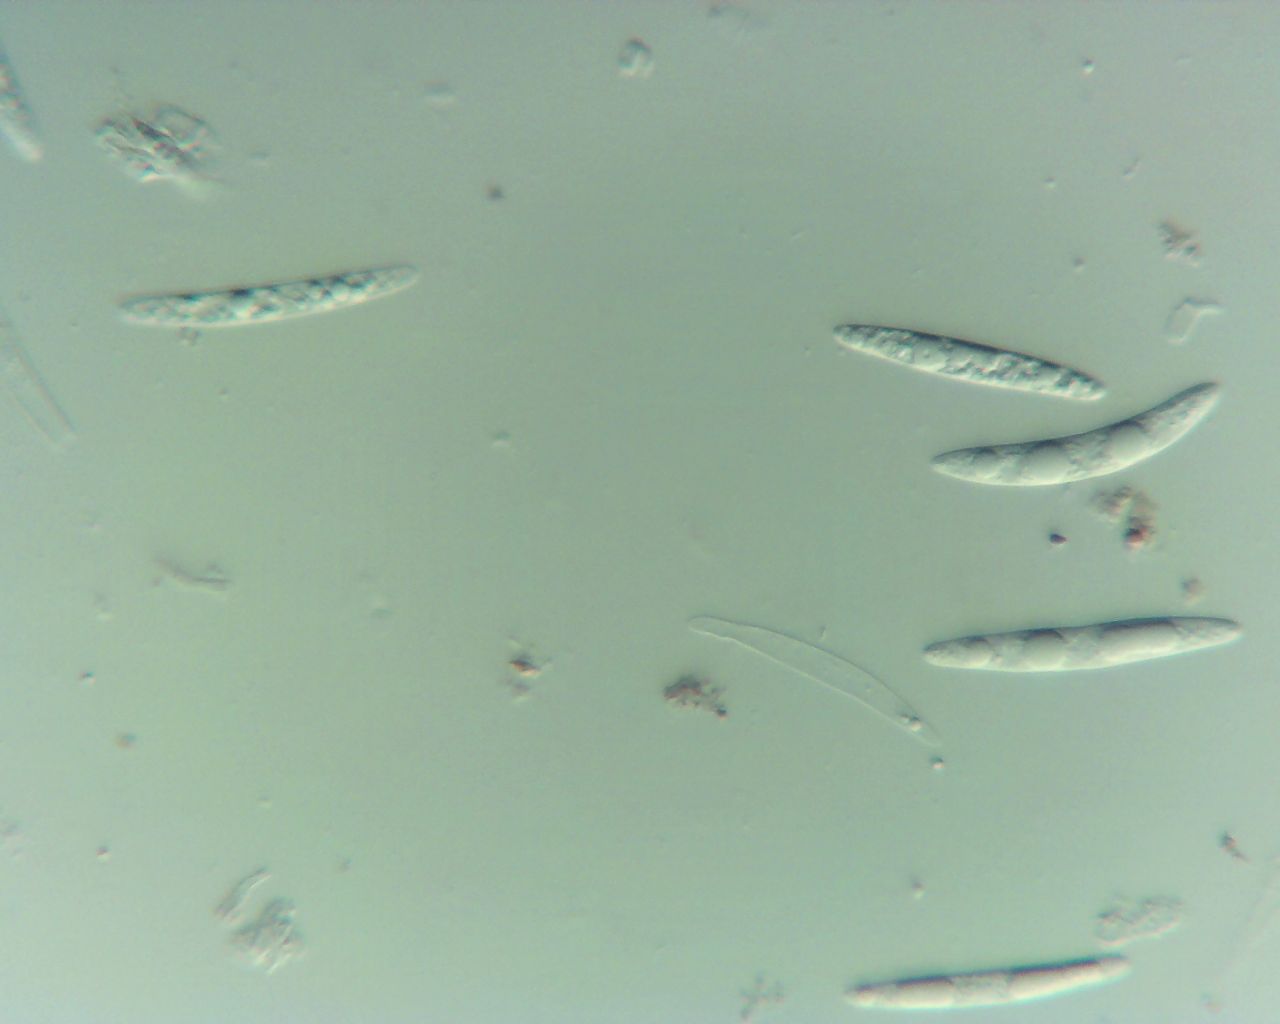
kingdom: Fungi
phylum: Ascomycota
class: Sordariomycetes
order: Coronophorales
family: Bertiaceae
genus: Bertia
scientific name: Bertia moriformis
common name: almindelig morbærkerne
